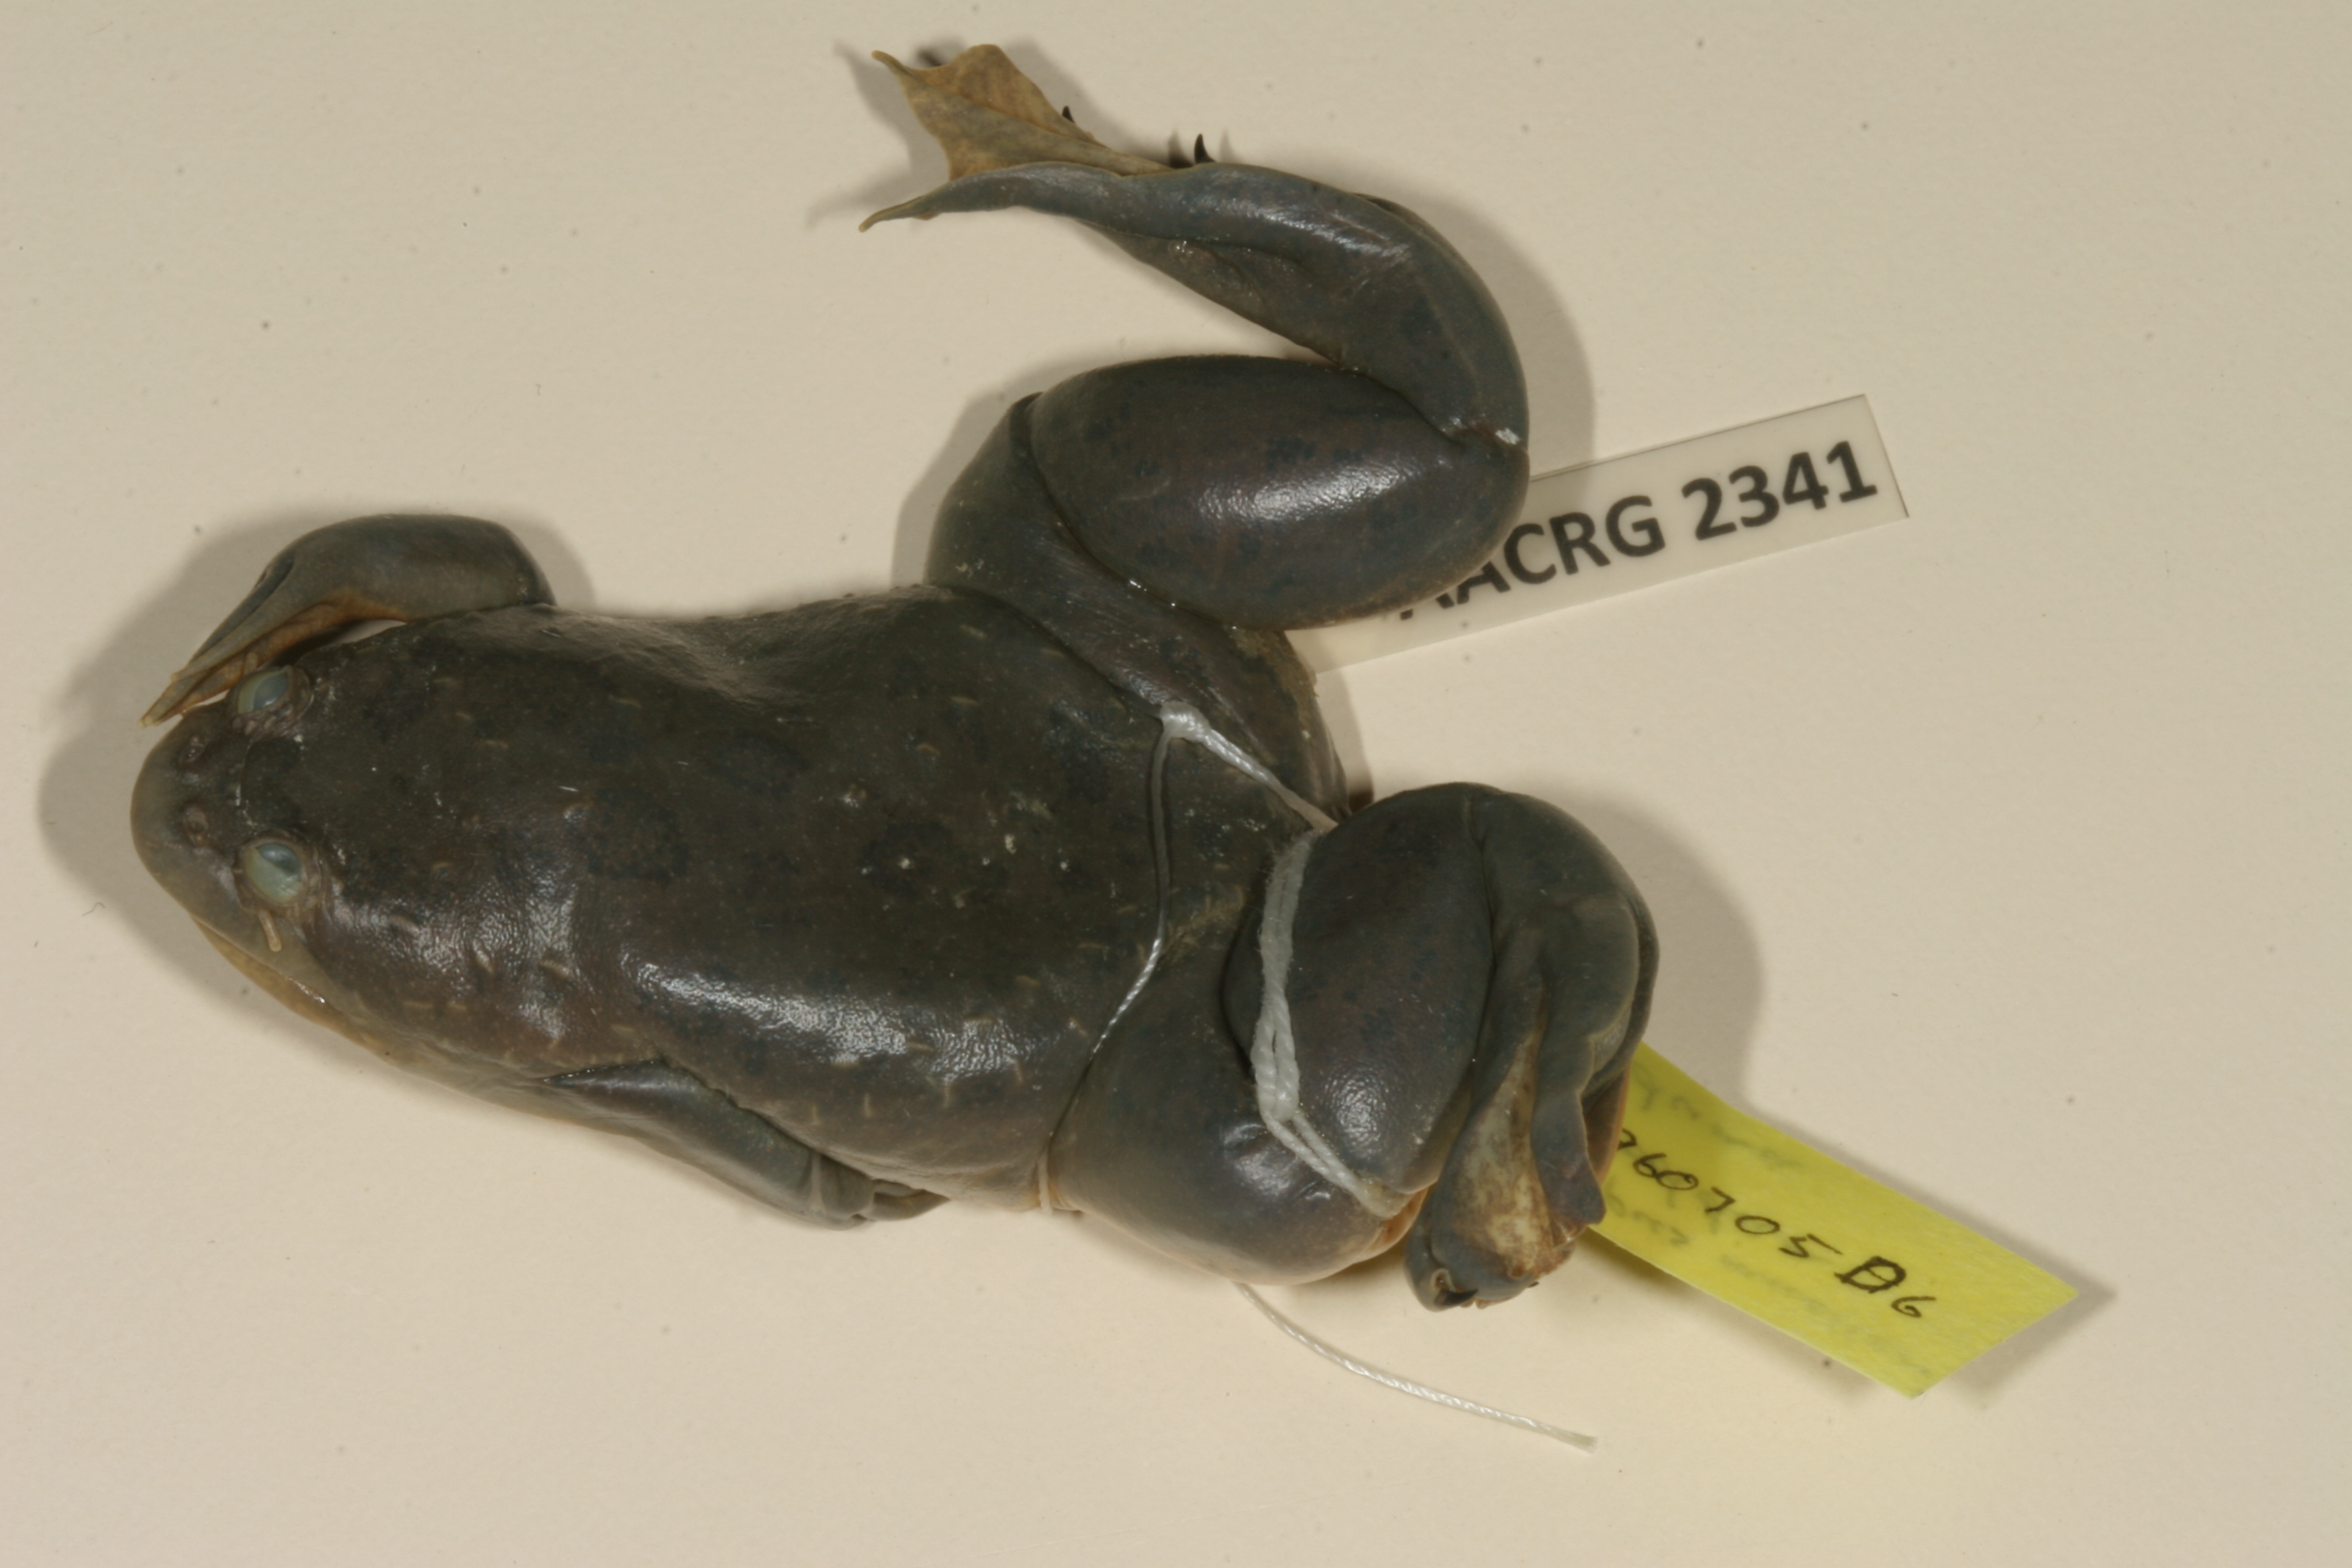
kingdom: Animalia
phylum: Chordata
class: Amphibia
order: Anura
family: Pipidae
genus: Xenopus
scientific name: Xenopus muelleri
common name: Muller's clawed frog
